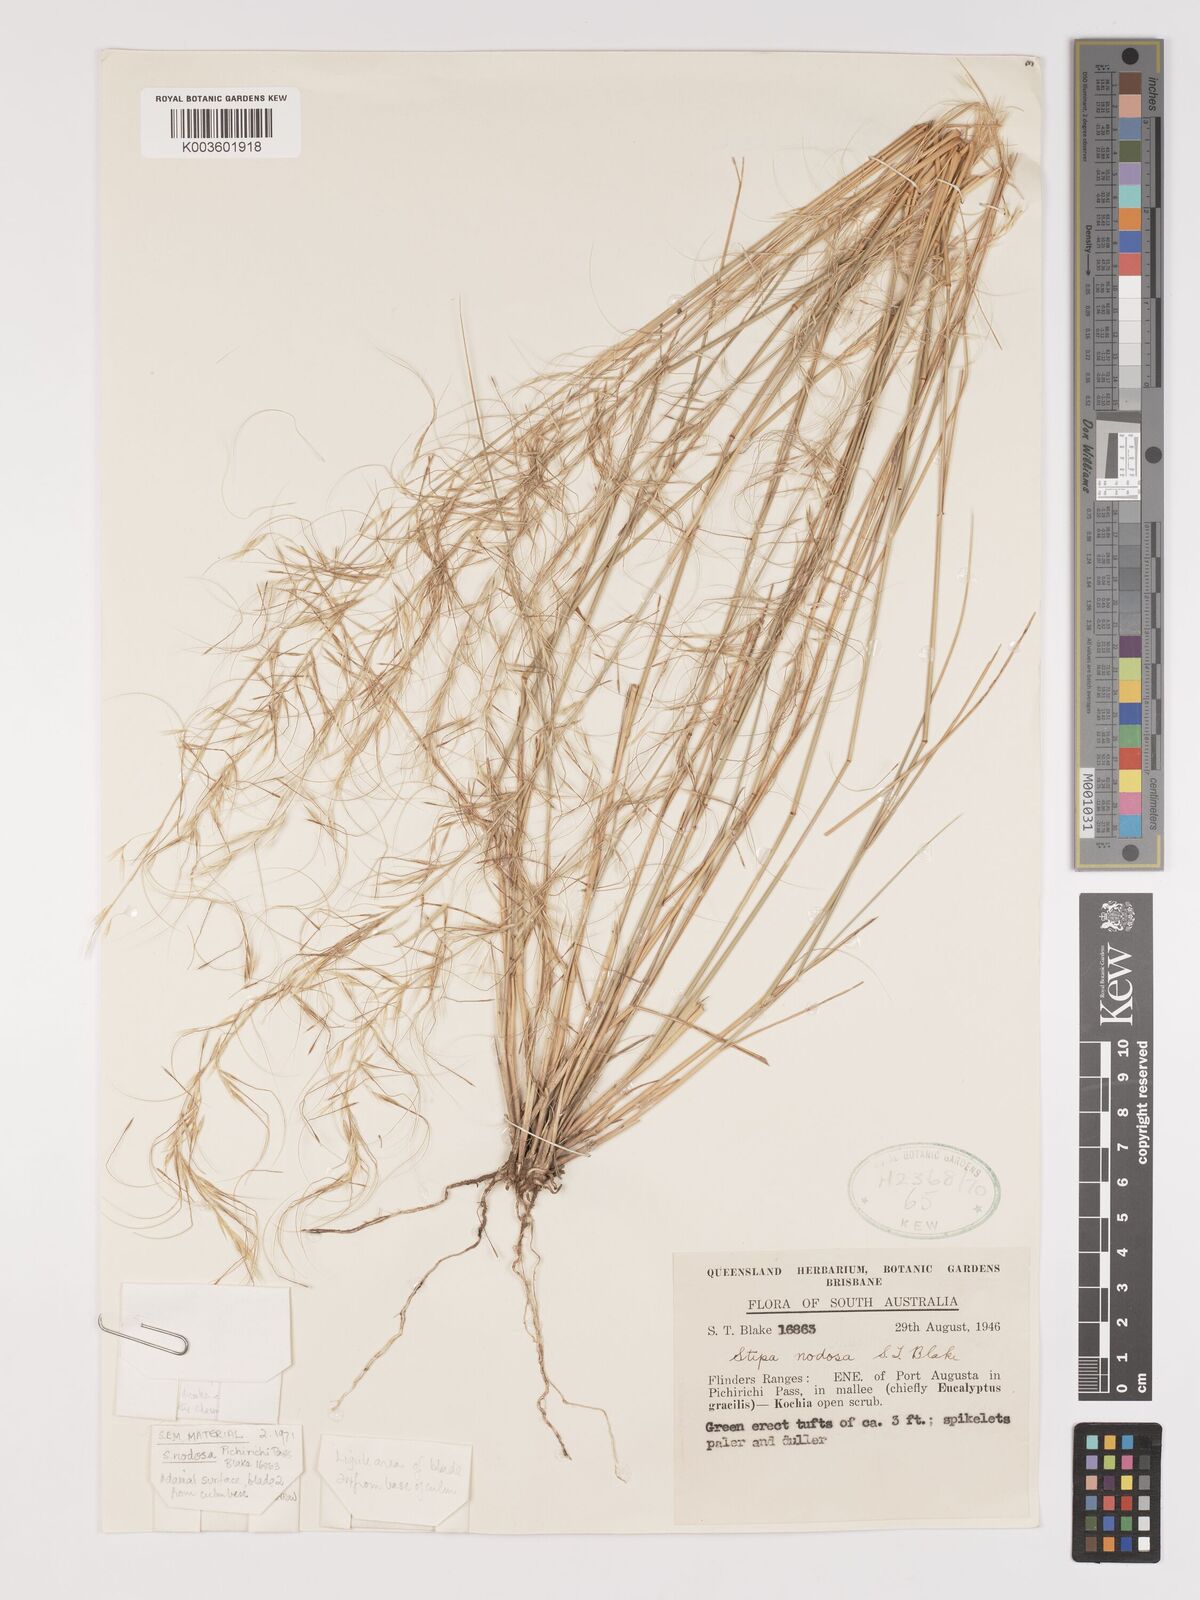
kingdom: Plantae
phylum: Tracheophyta
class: Liliopsida
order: Poales
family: Poaceae
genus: Austrostipa
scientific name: Austrostipa nodosa
